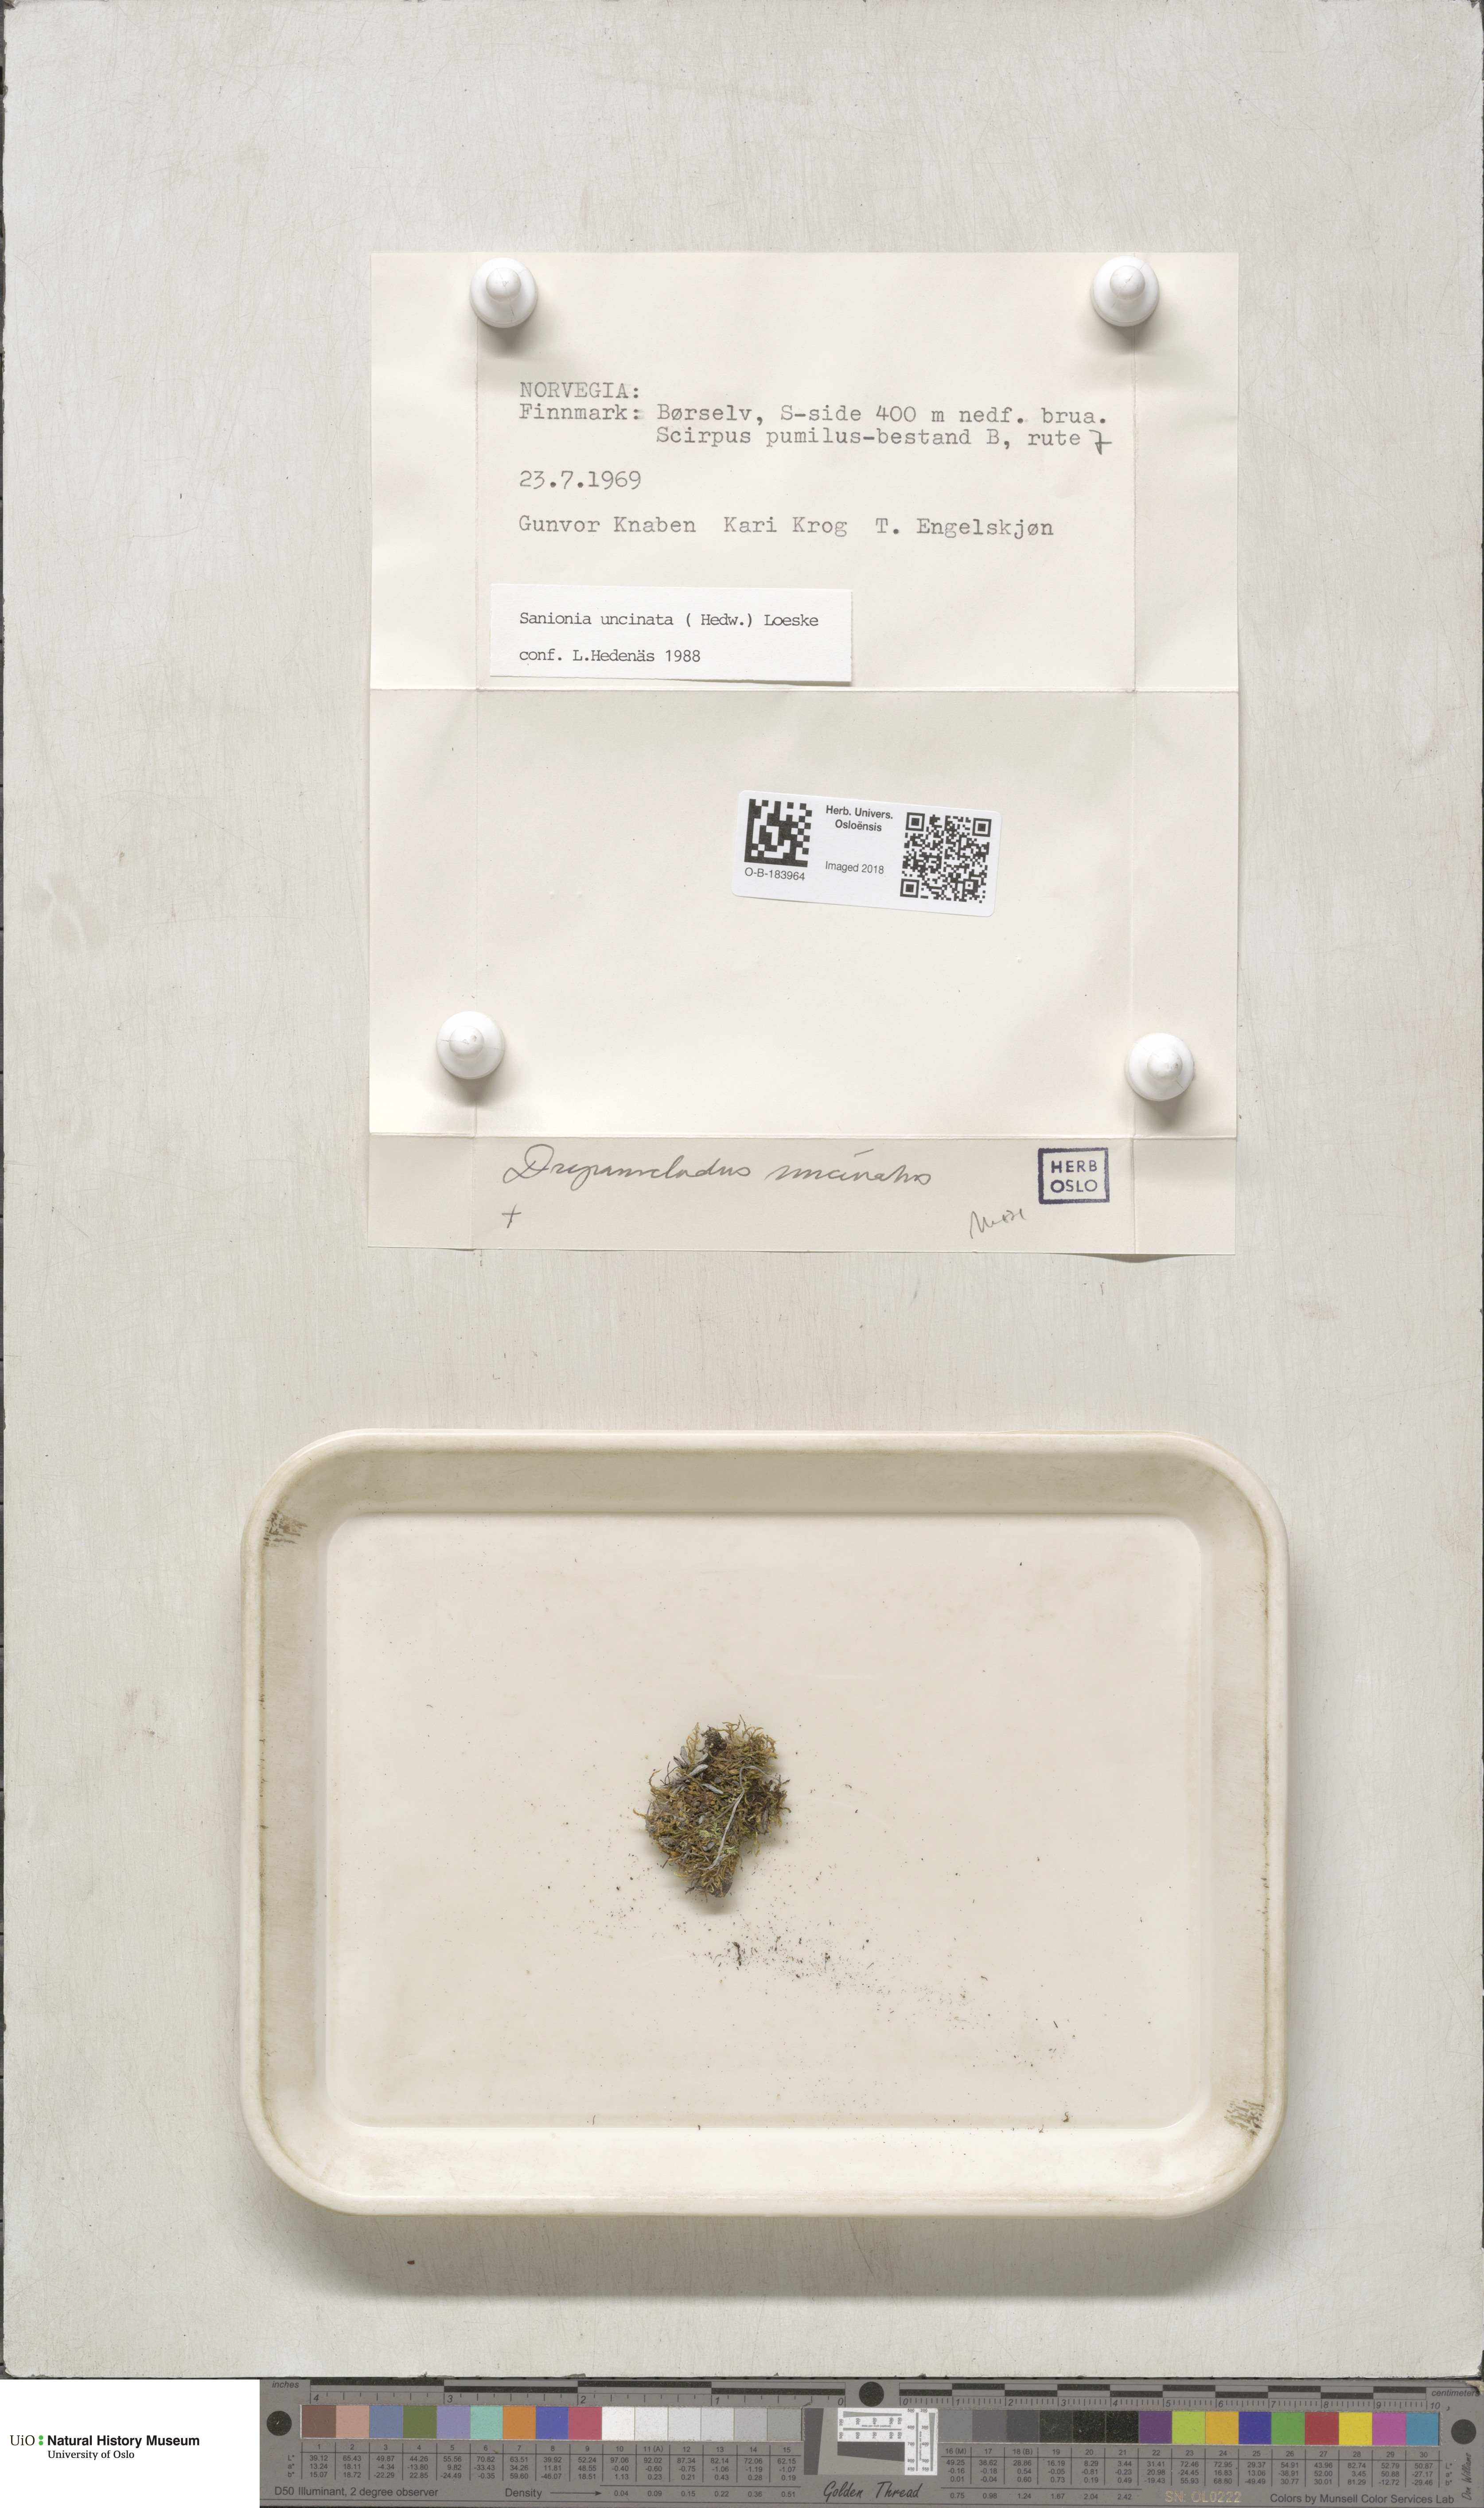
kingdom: Plantae
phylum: Bryophyta
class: Bryopsida
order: Hypnales
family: Scorpidiaceae
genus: Sanionia
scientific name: Sanionia uncinata
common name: Sickle moss
